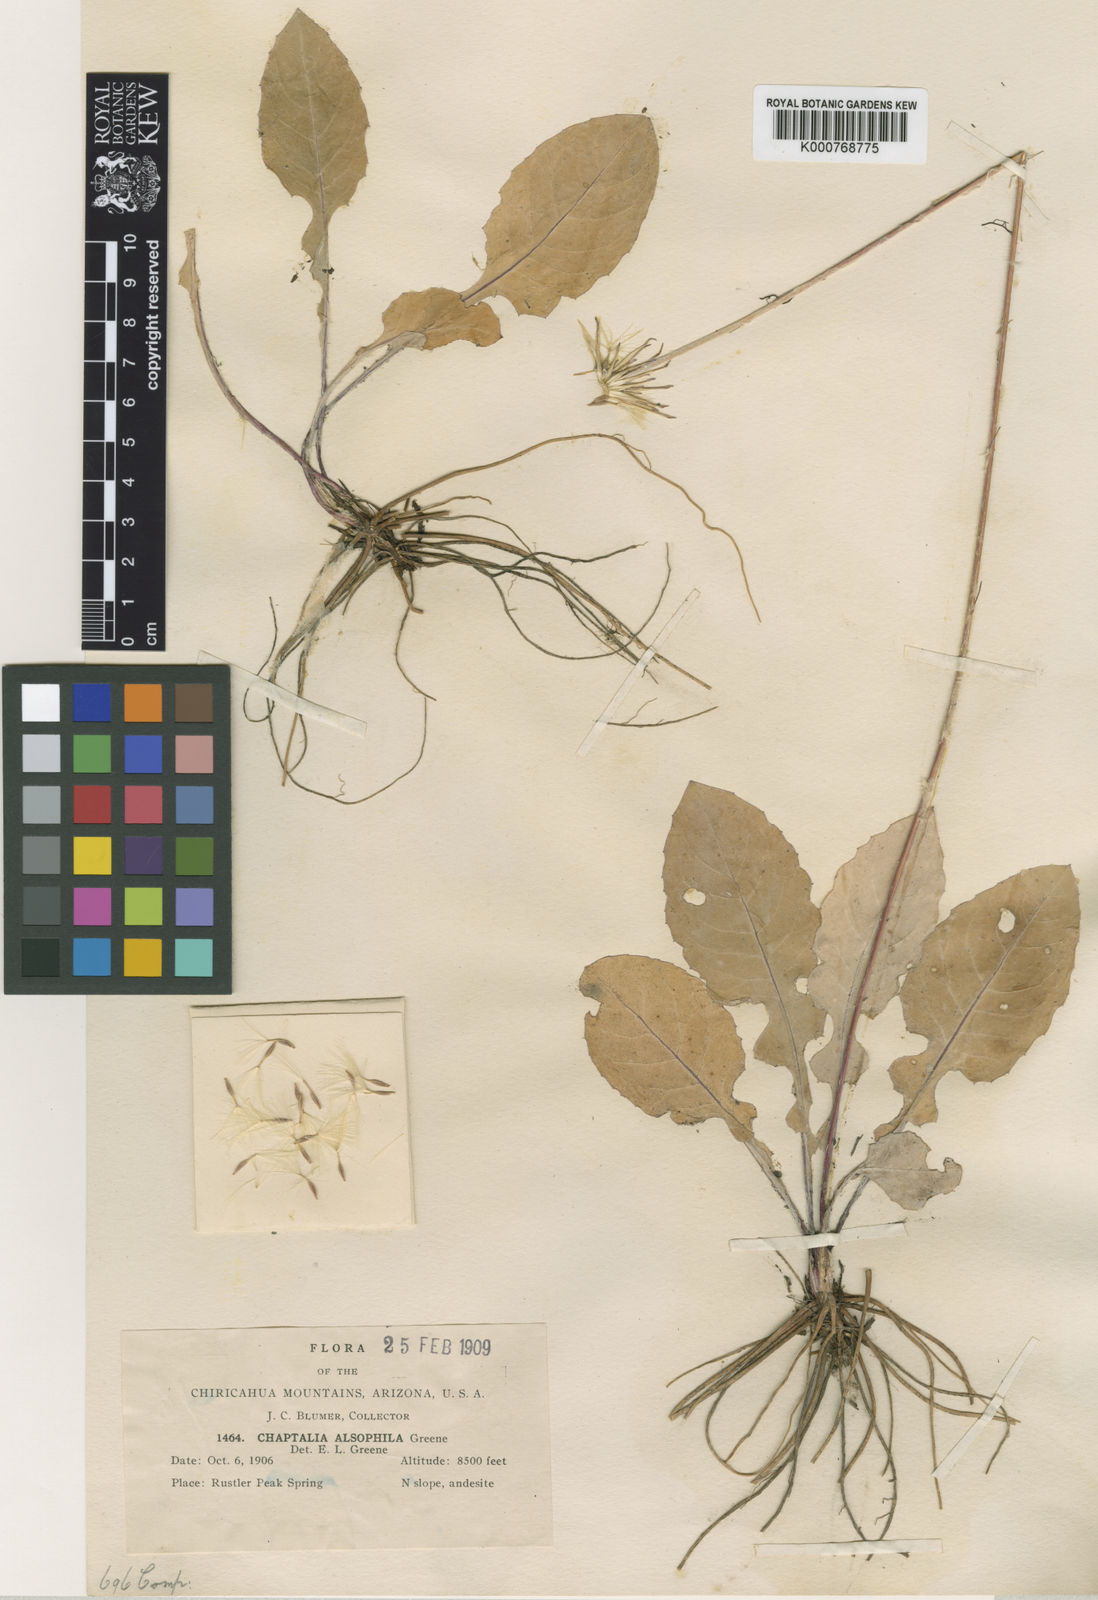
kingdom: Plantae
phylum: Tracheophyta
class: Magnoliopsida
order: Asterales
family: Asteraceae
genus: Leibnitzia
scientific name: Leibnitzia
